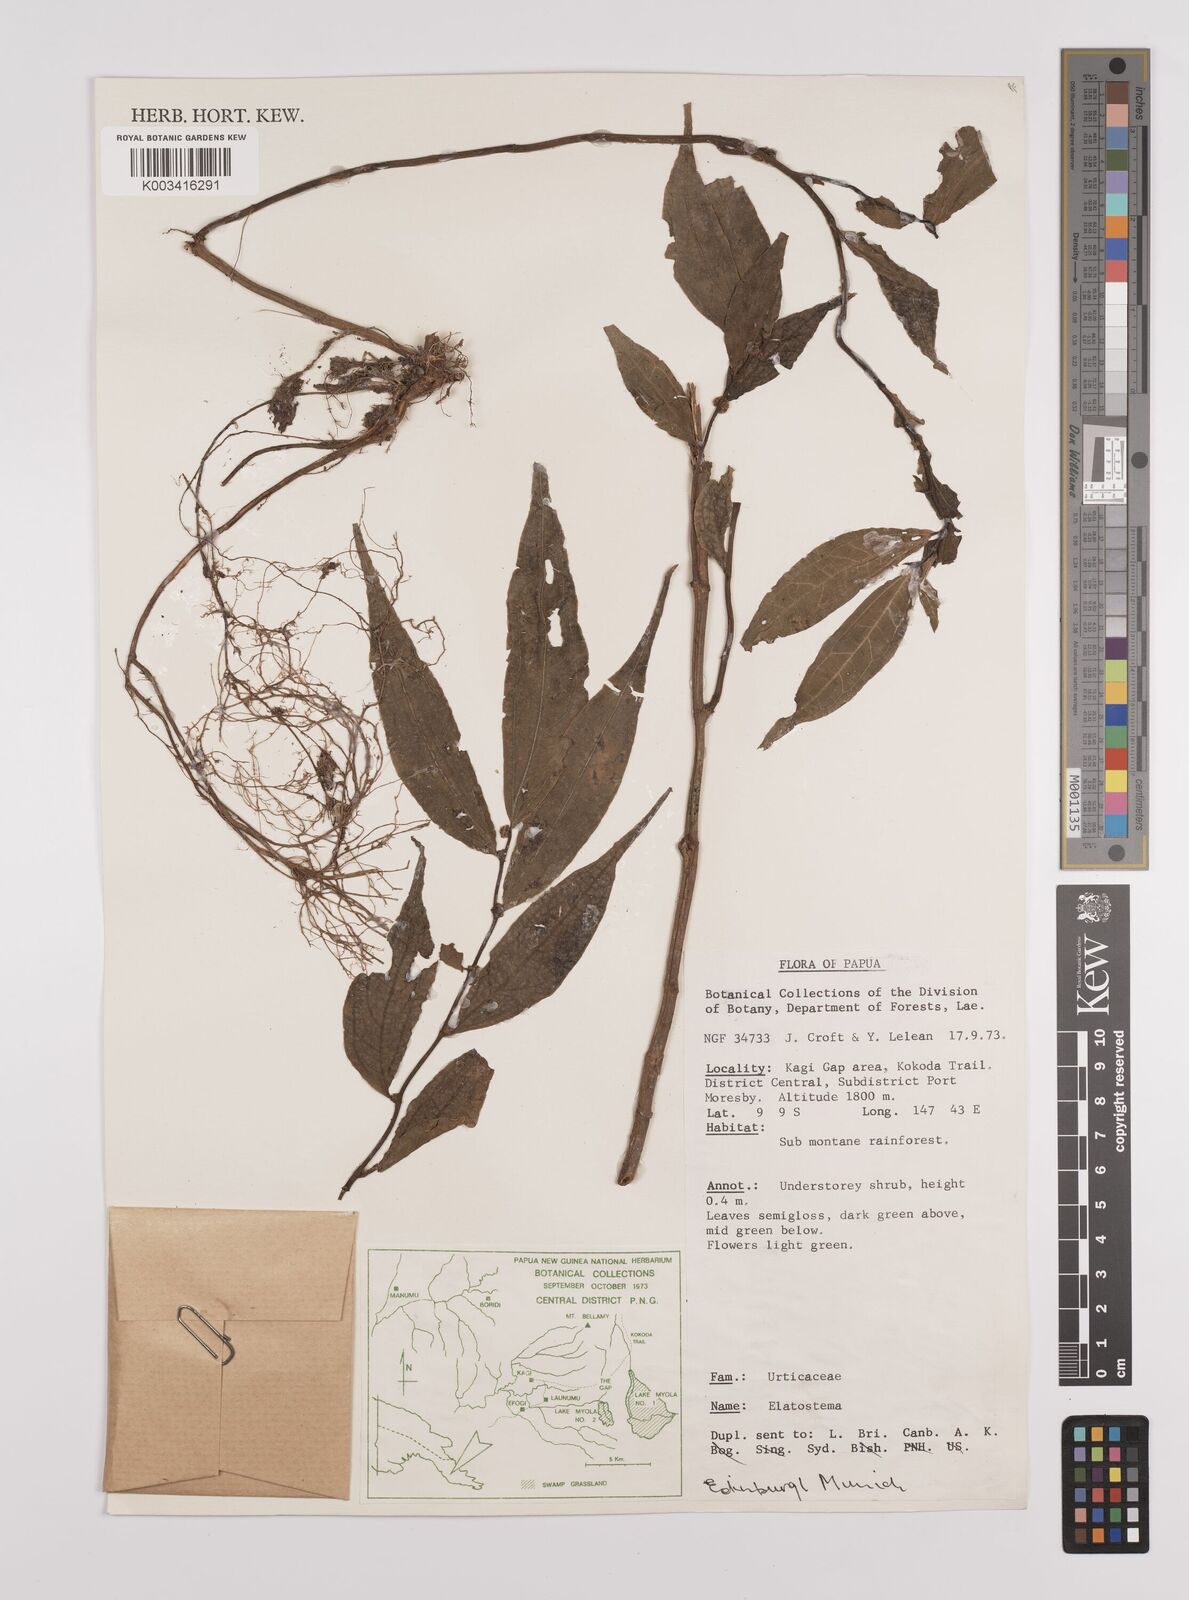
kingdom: Plantae
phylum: Tracheophyta
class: Magnoliopsida
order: Rosales
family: Urticaceae
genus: Elatostema
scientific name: Elatostema integrifolium
